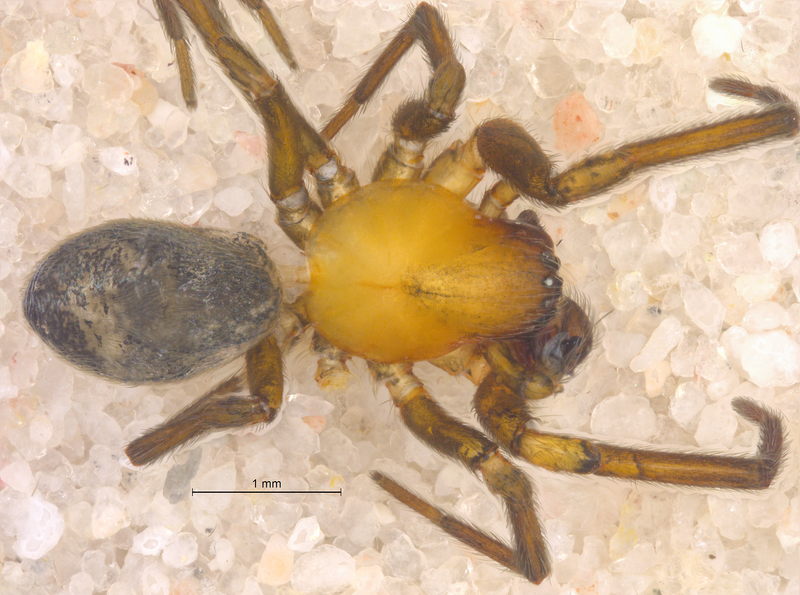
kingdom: Animalia
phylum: Arthropoda
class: Arachnida
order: Araneae
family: Titanoecidae
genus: Titanoeca
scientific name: Titanoeca spominima
